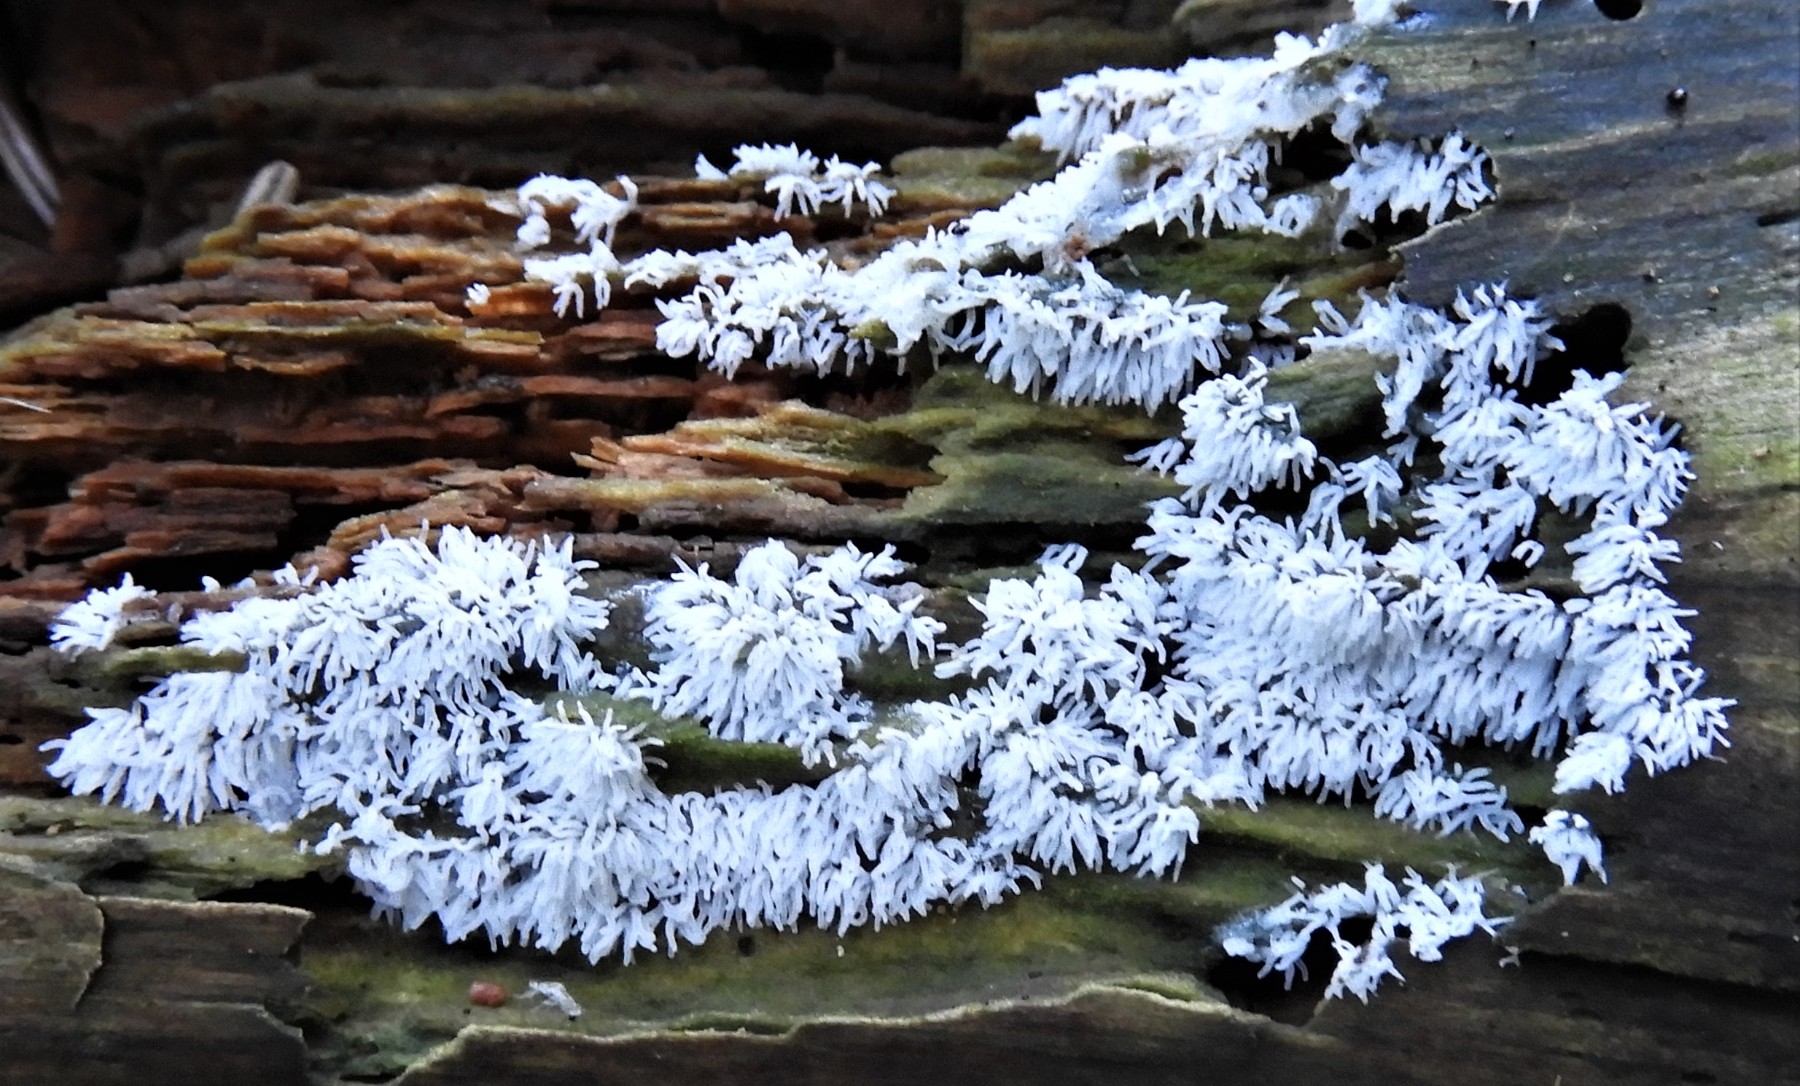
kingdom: Protozoa
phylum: Mycetozoa
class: Protosteliomycetes
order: Ceratiomyxales
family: Ceratiomyxaceae
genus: Ceratiomyxa
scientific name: Ceratiomyxa fruticulosa
